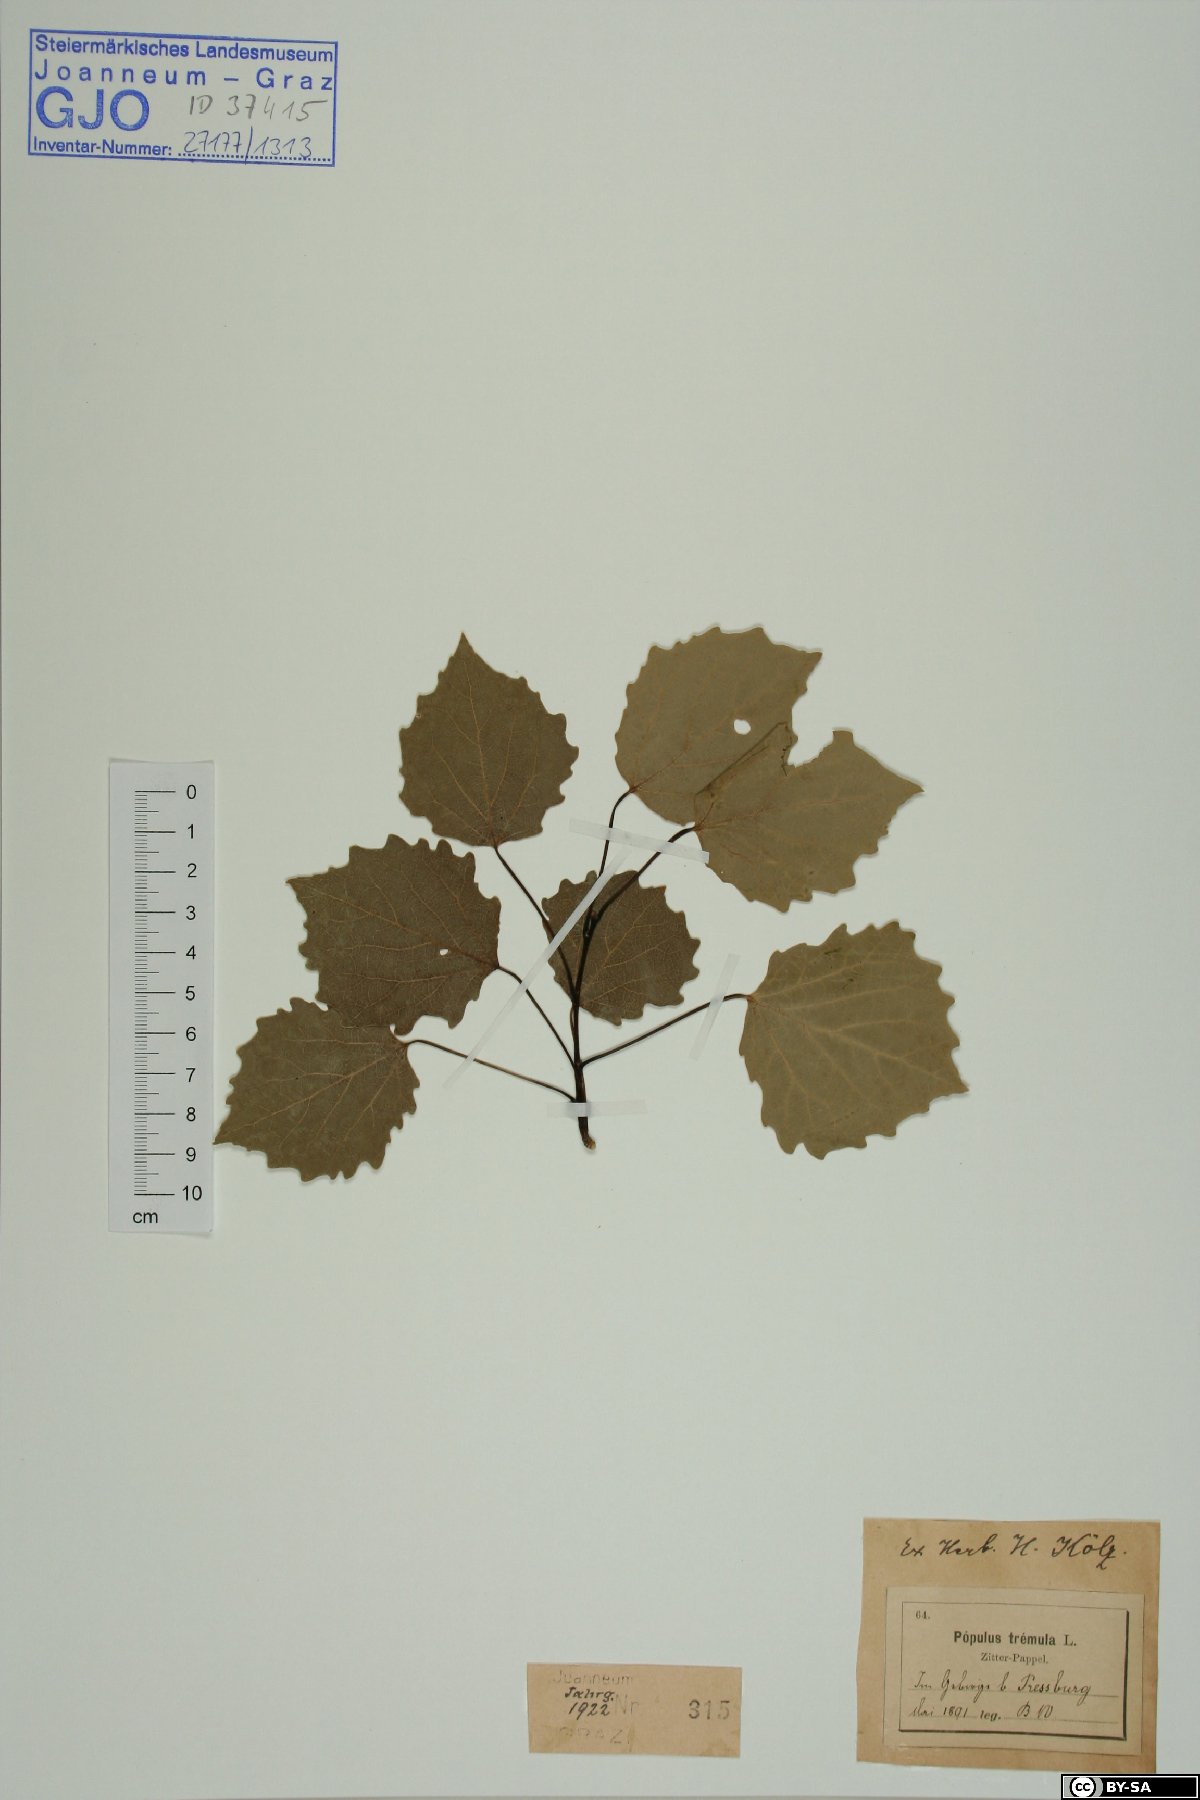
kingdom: Plantae
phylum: Tracheophyta
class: Magnoliopsida
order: Malpighiales
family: Salicaceae
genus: Populus
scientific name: Populus tremula
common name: European aspen
